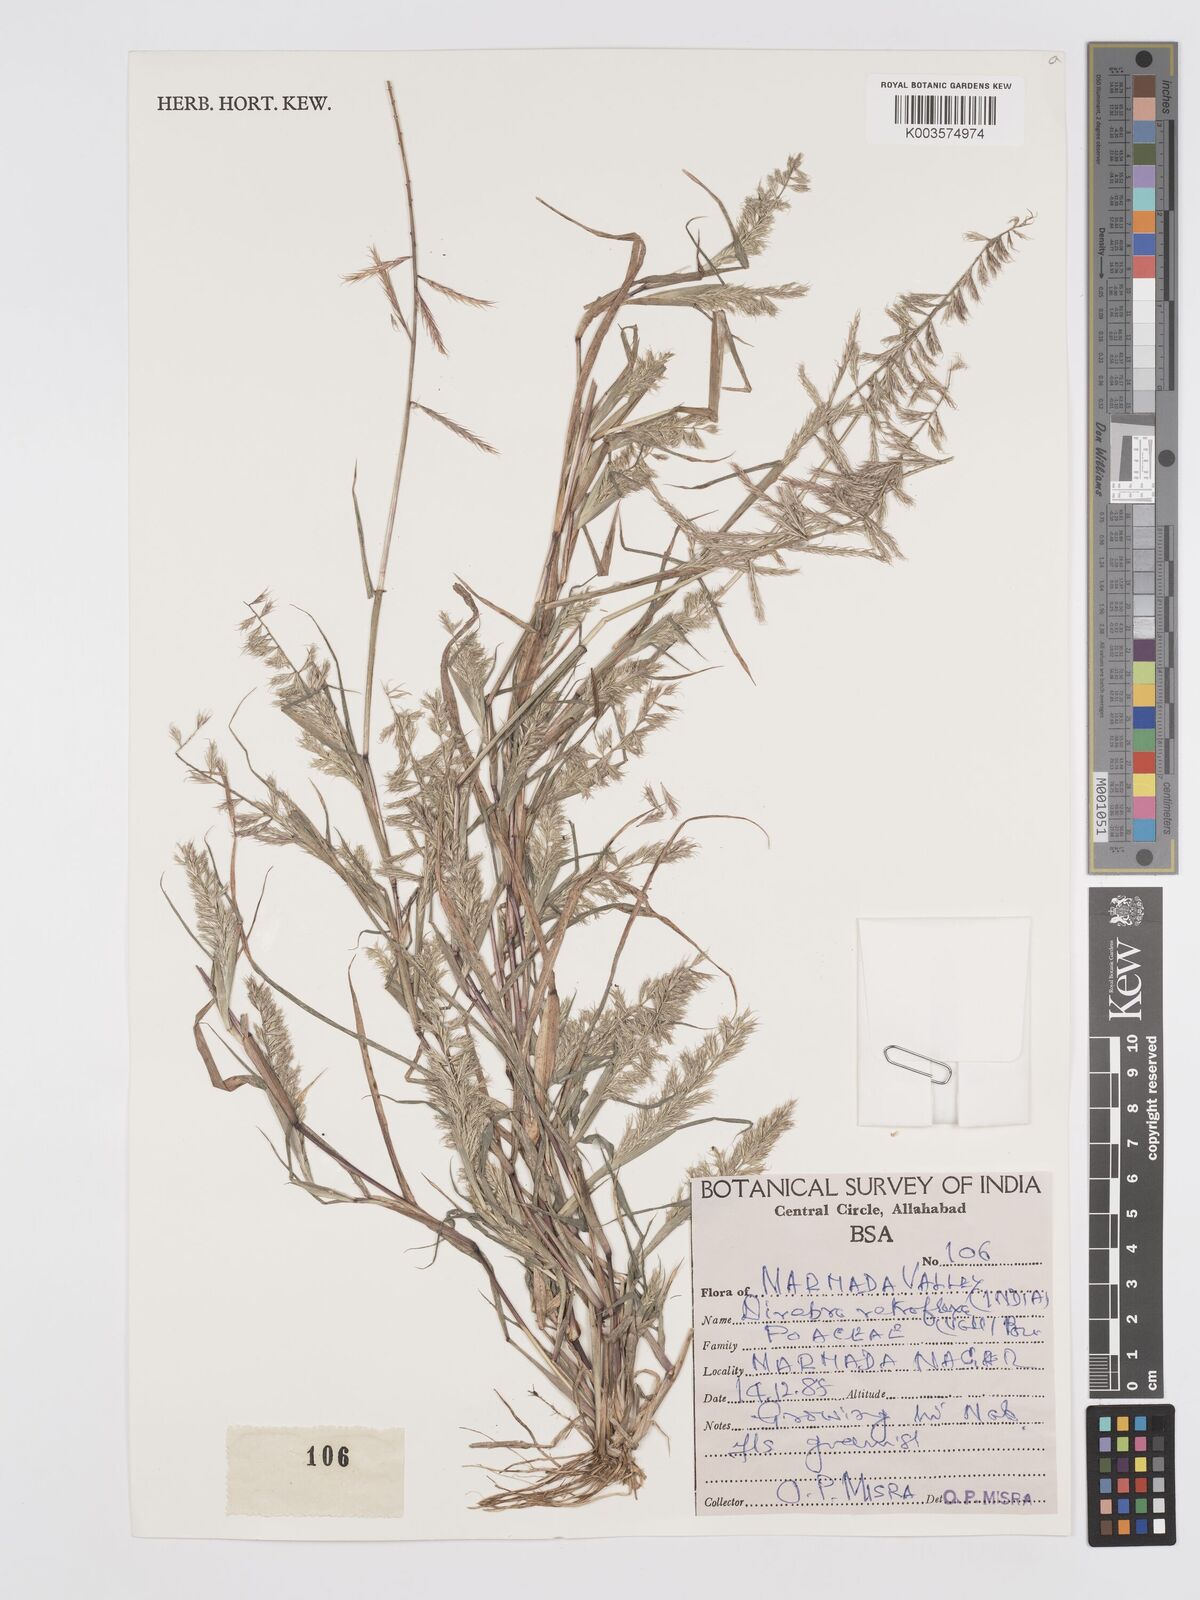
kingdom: Plantae
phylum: Tracheophyta
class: Liliopsida
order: Poales
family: Poaceae
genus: Dinebra
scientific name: Dinebra retroflexa
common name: Viper grass
